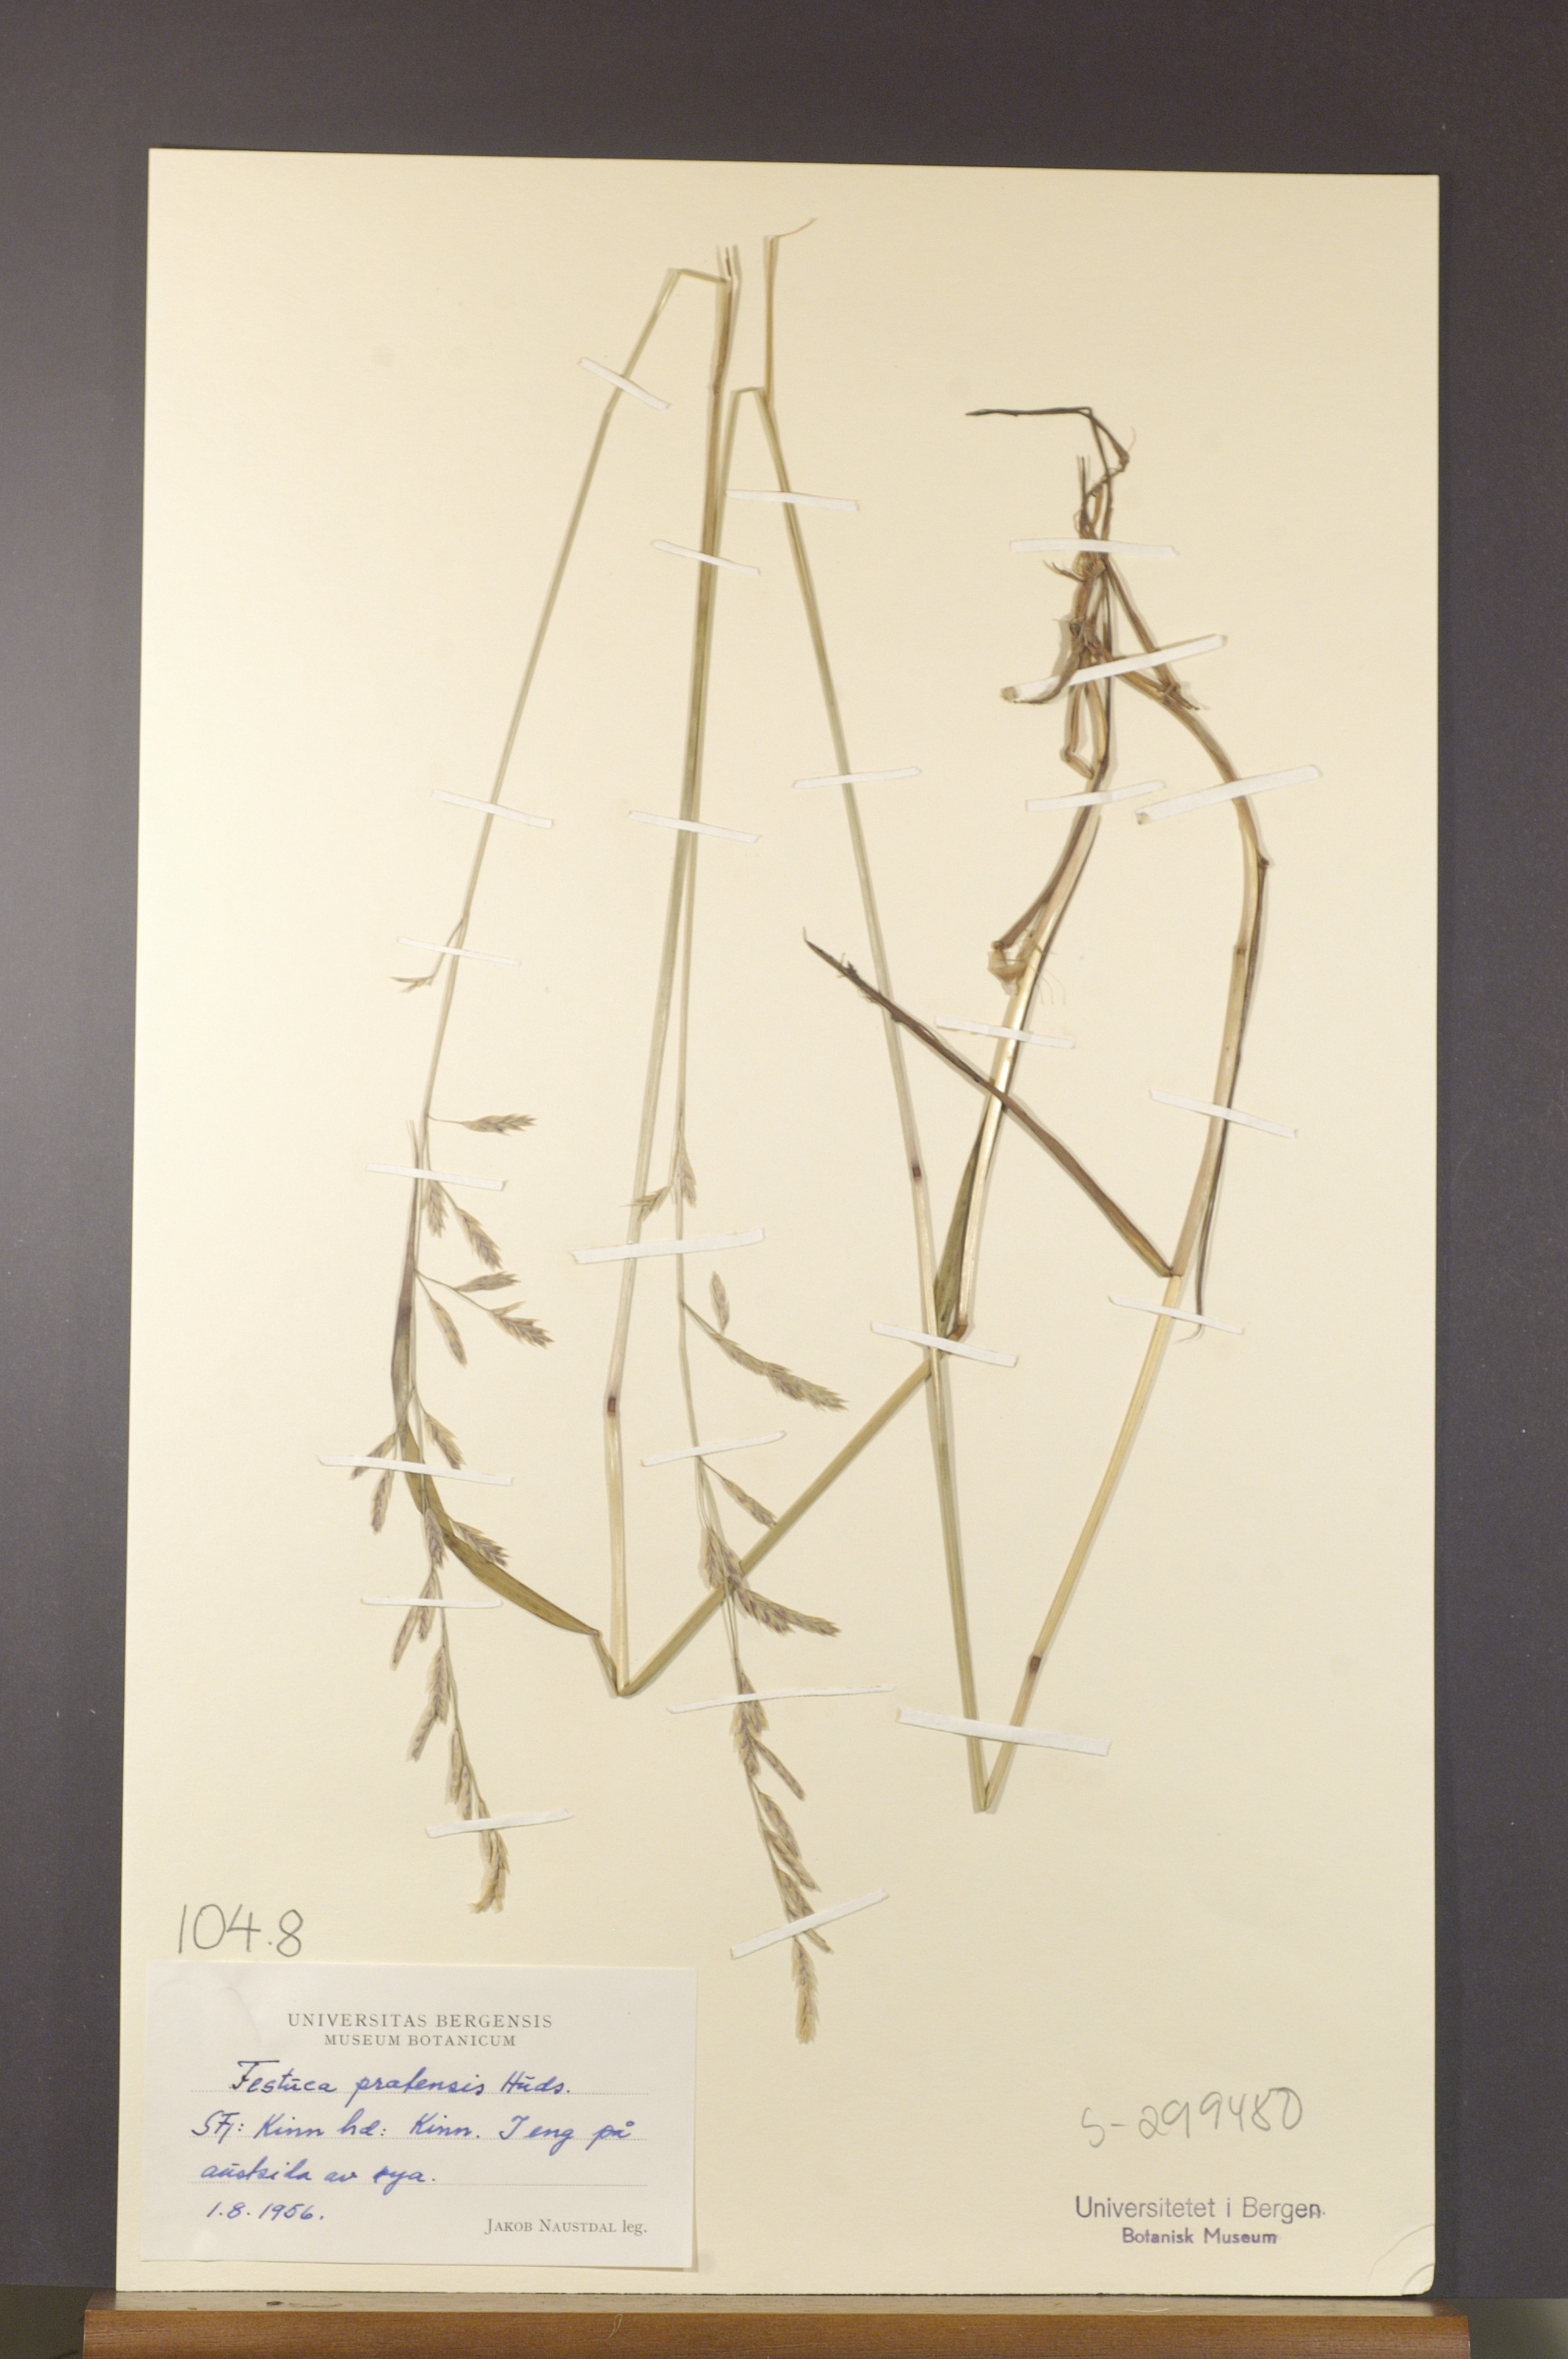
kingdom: Plantae
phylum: Tracheophyta
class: Liliopsida
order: Poales
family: Poaceae
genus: Lolium
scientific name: Lolium pratense
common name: Dover grass
